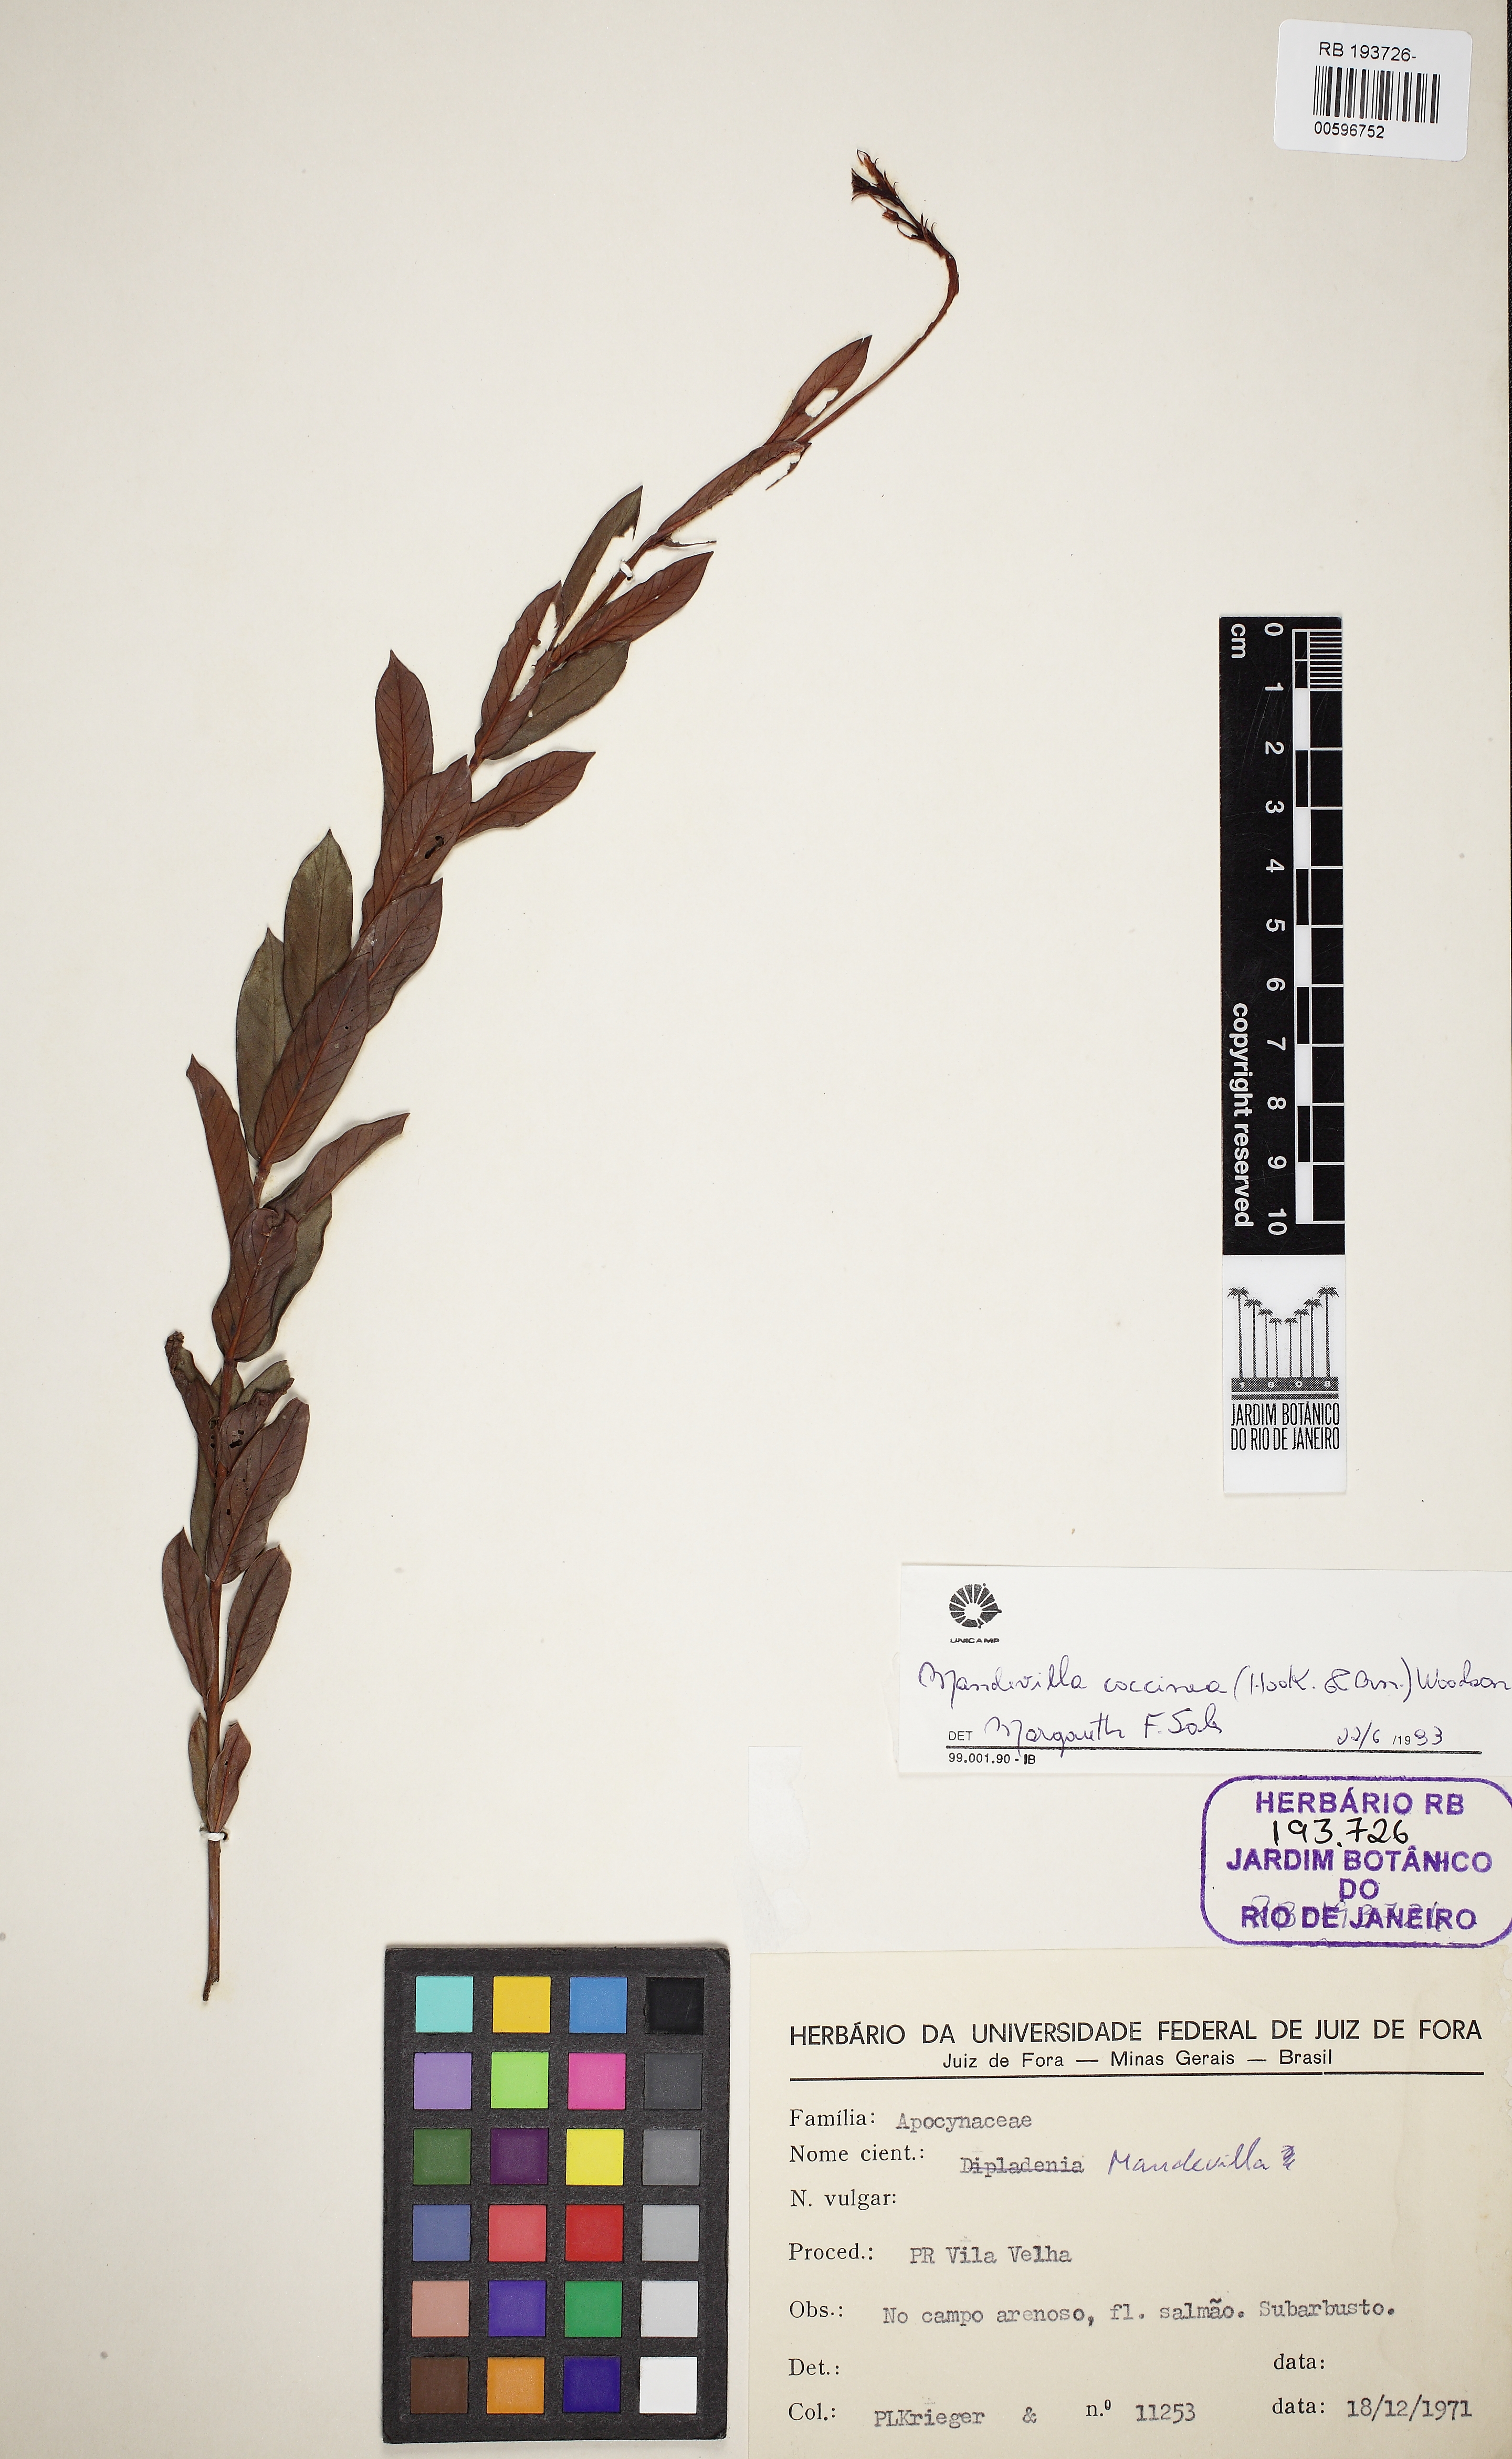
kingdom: Plantae
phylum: Tracheophyta
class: Magnoliopsida
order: Gentianales
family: Apocynaceae
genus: Mandevilla
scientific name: Mandevilla coccinea
